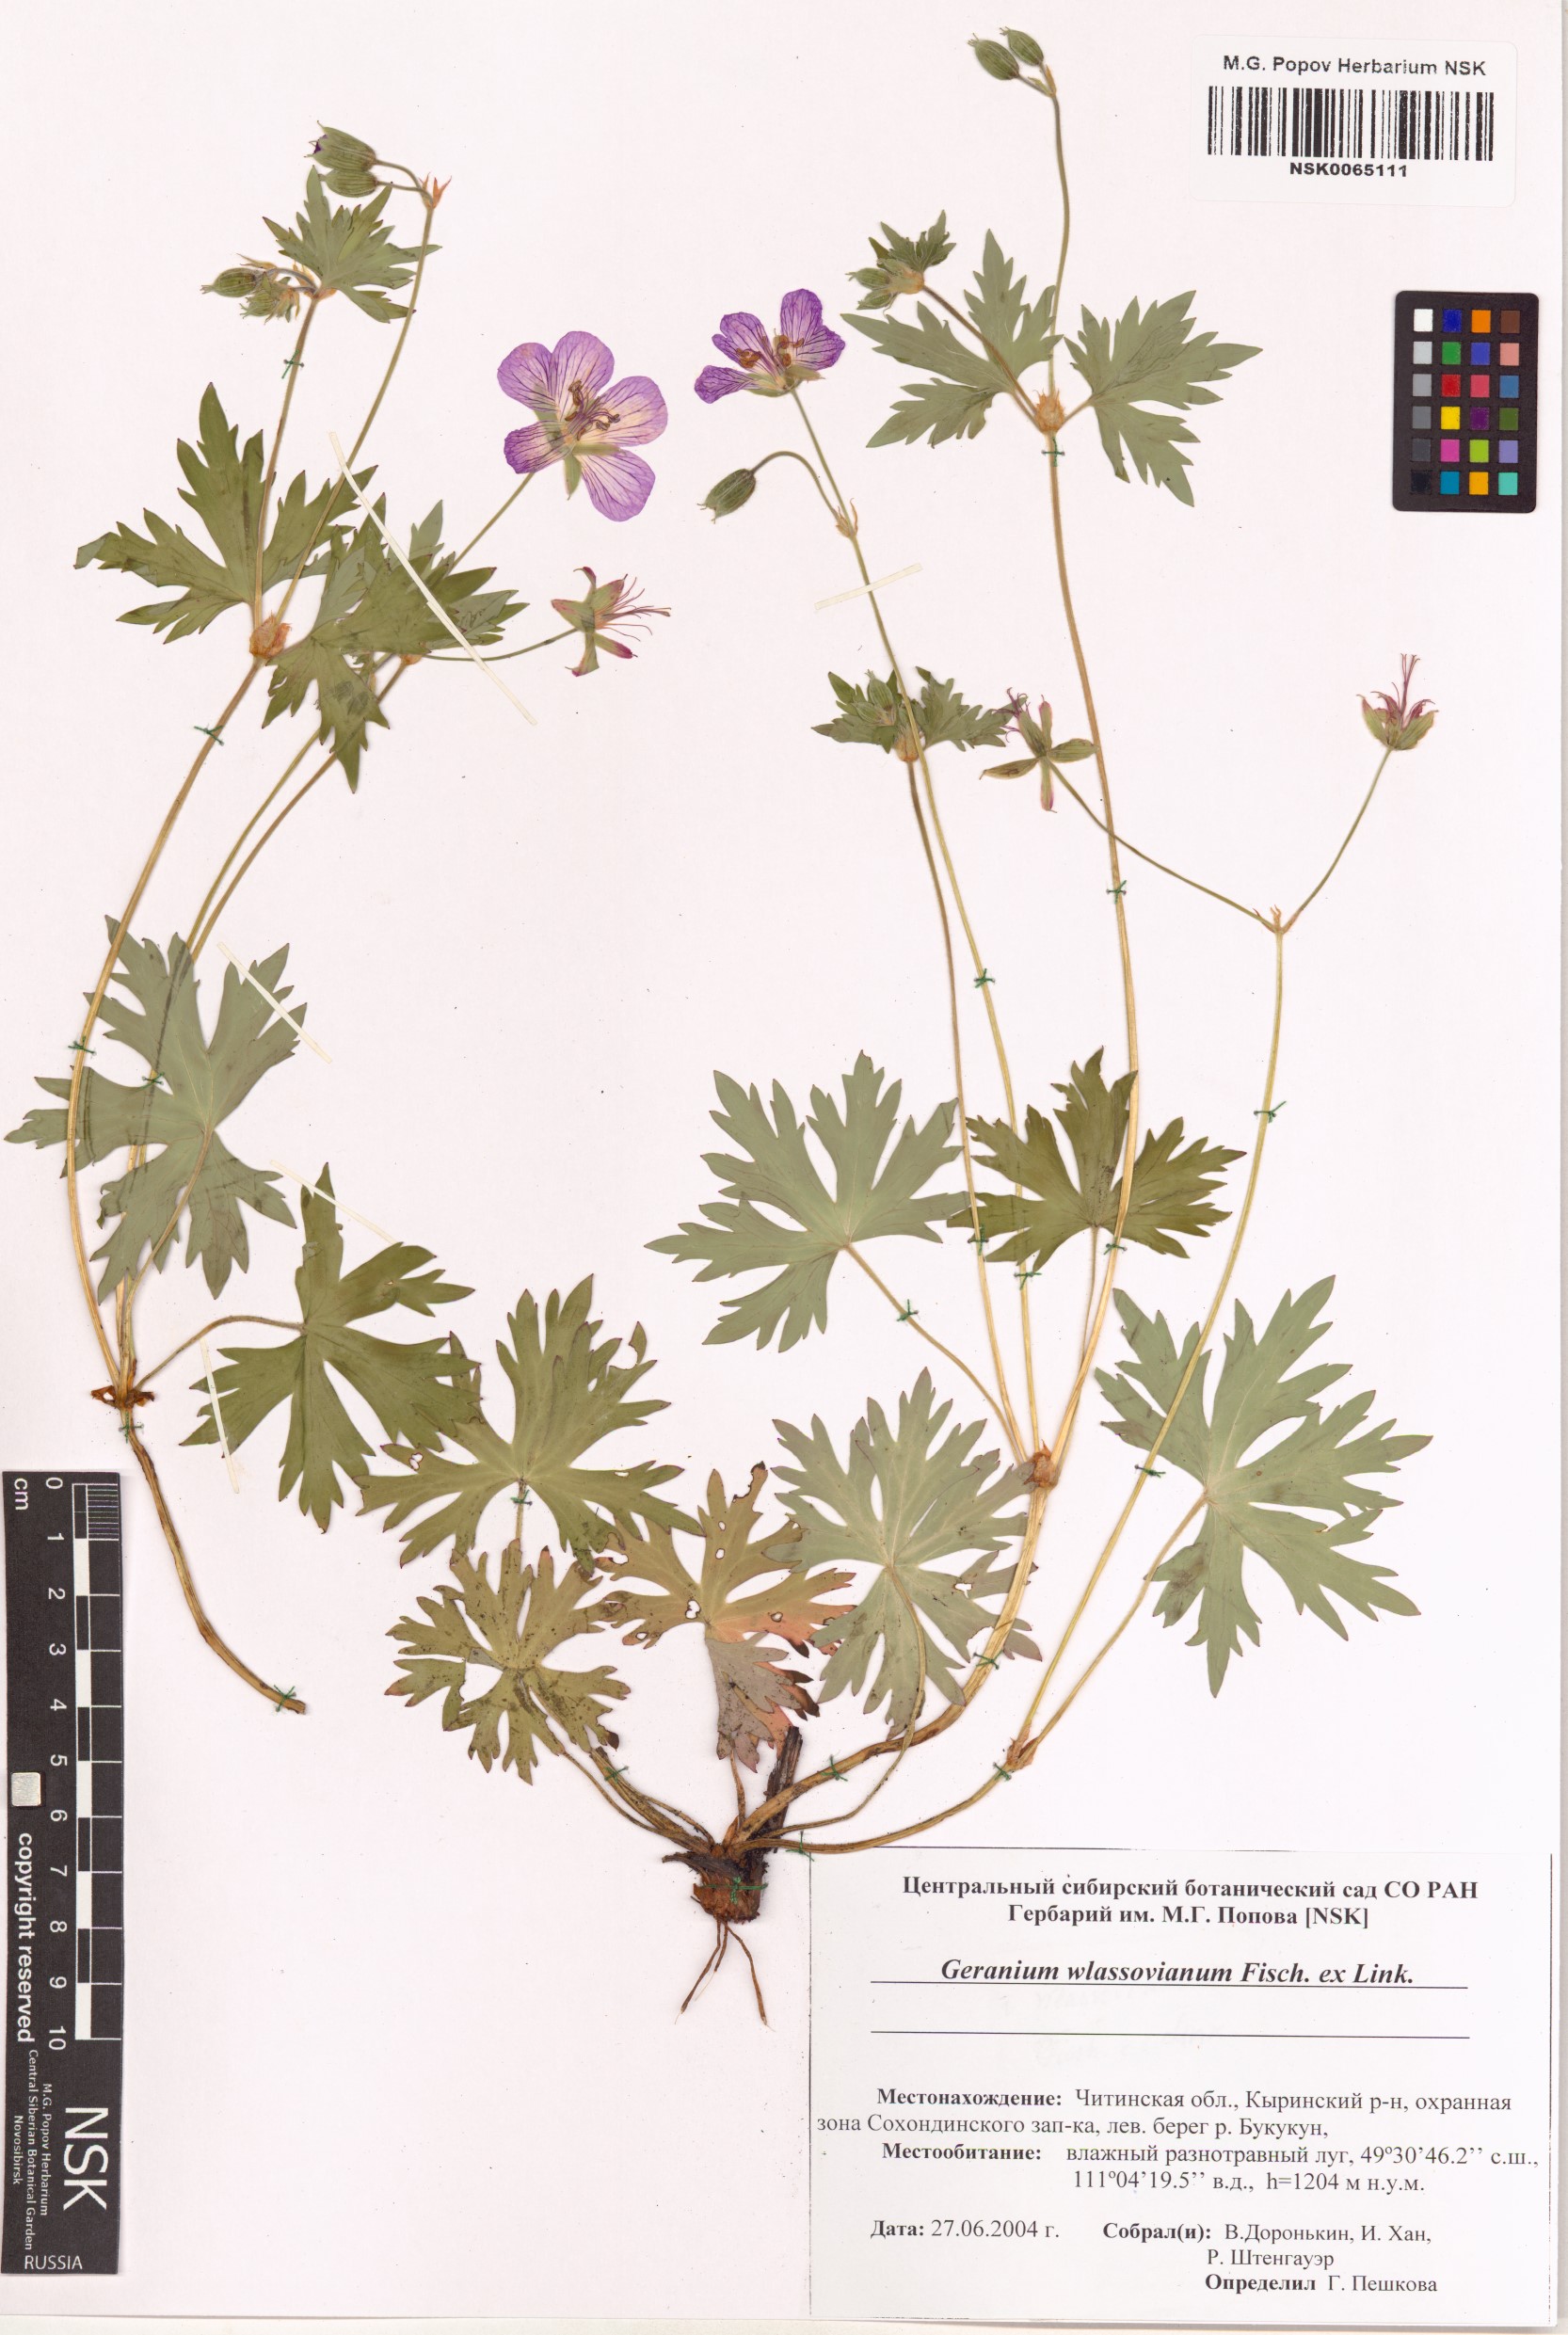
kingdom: Plantae
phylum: Tracheophyta
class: Magnoliopsida
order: Geraniales
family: Geraniaceae
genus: Geranium
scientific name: Geranium wlassovianum
